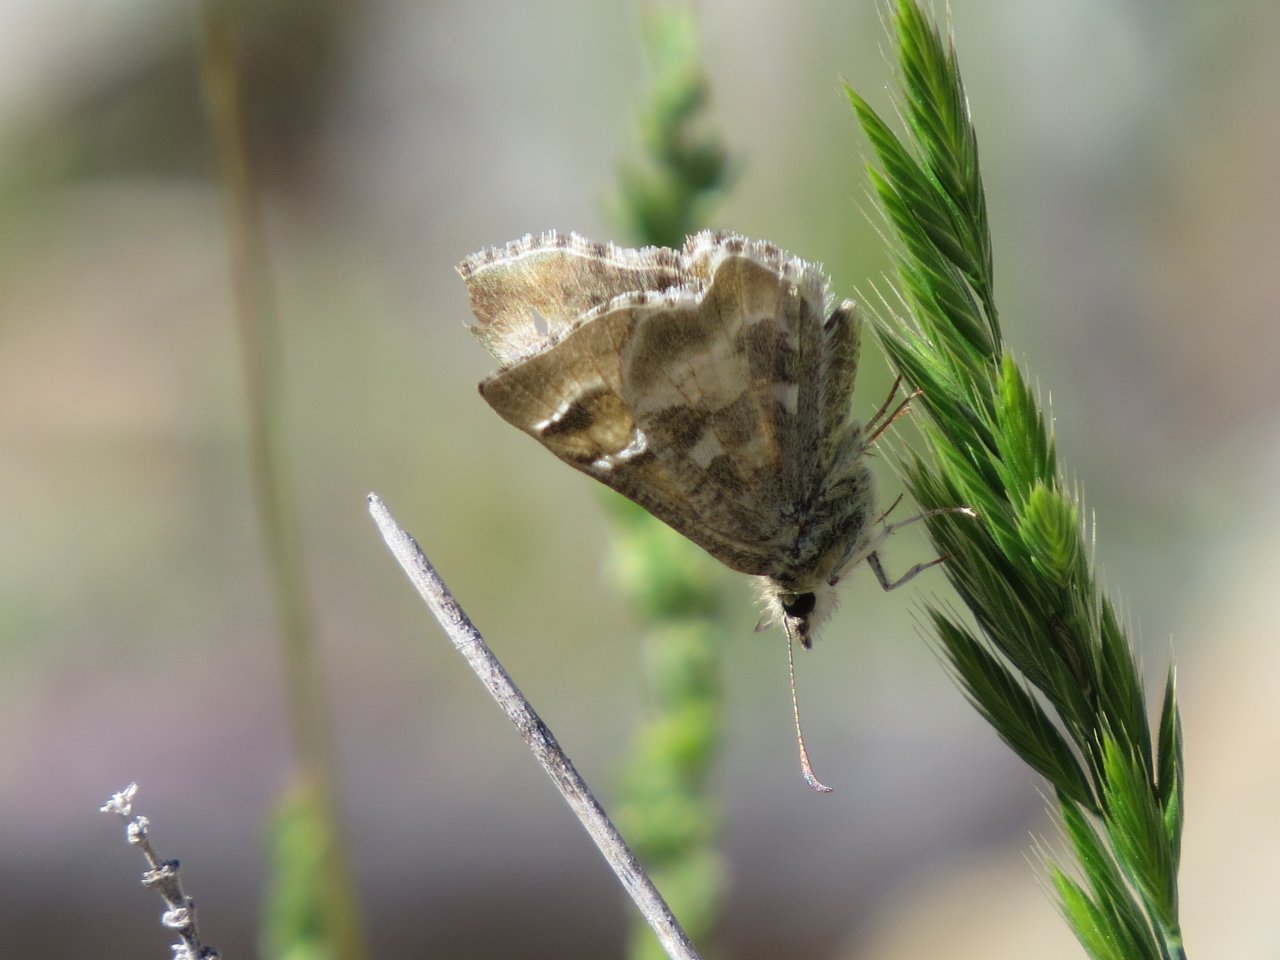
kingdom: Animalia
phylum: Arthropoda
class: Insecta
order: Lepidoptera
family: Hesperiidae
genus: Systasea
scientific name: Systasea zampa
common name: Arizona Powdered-Skipper
